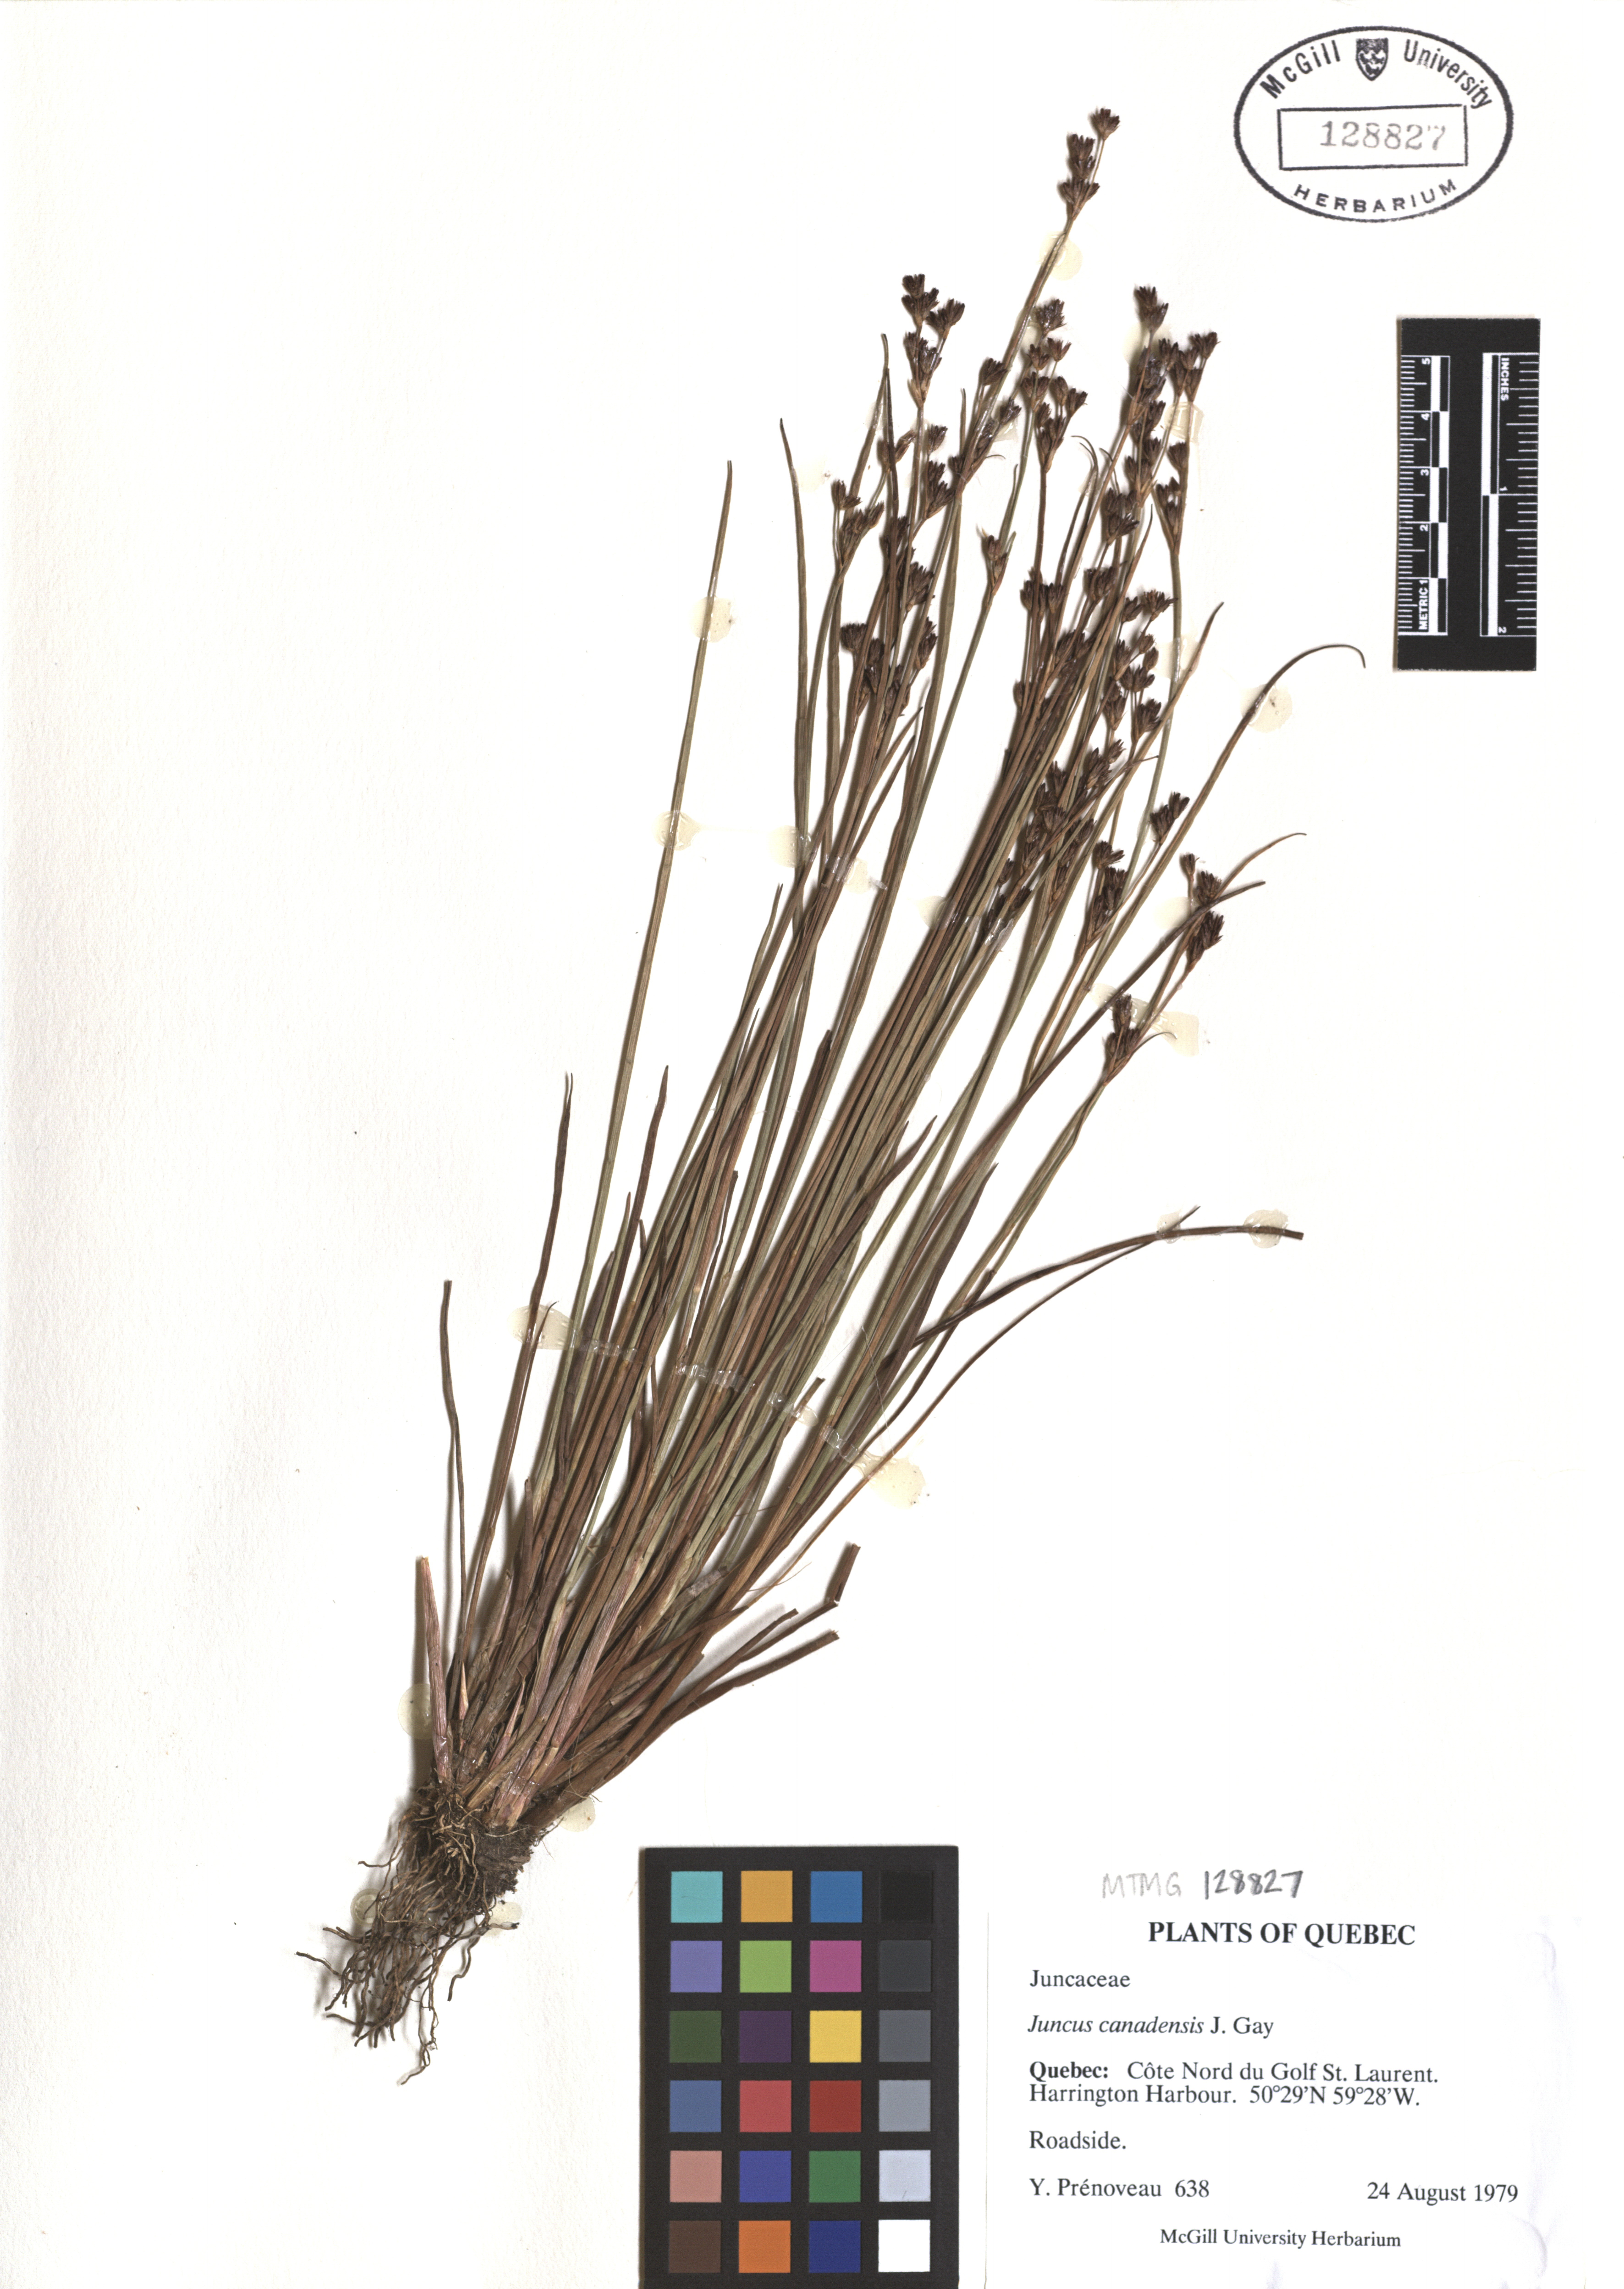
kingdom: Plantae
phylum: Tracheophyta
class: Liliopsida
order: Poales
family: Juncaceae
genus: Juncus
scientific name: Juncus canadensis
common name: Canada rush
